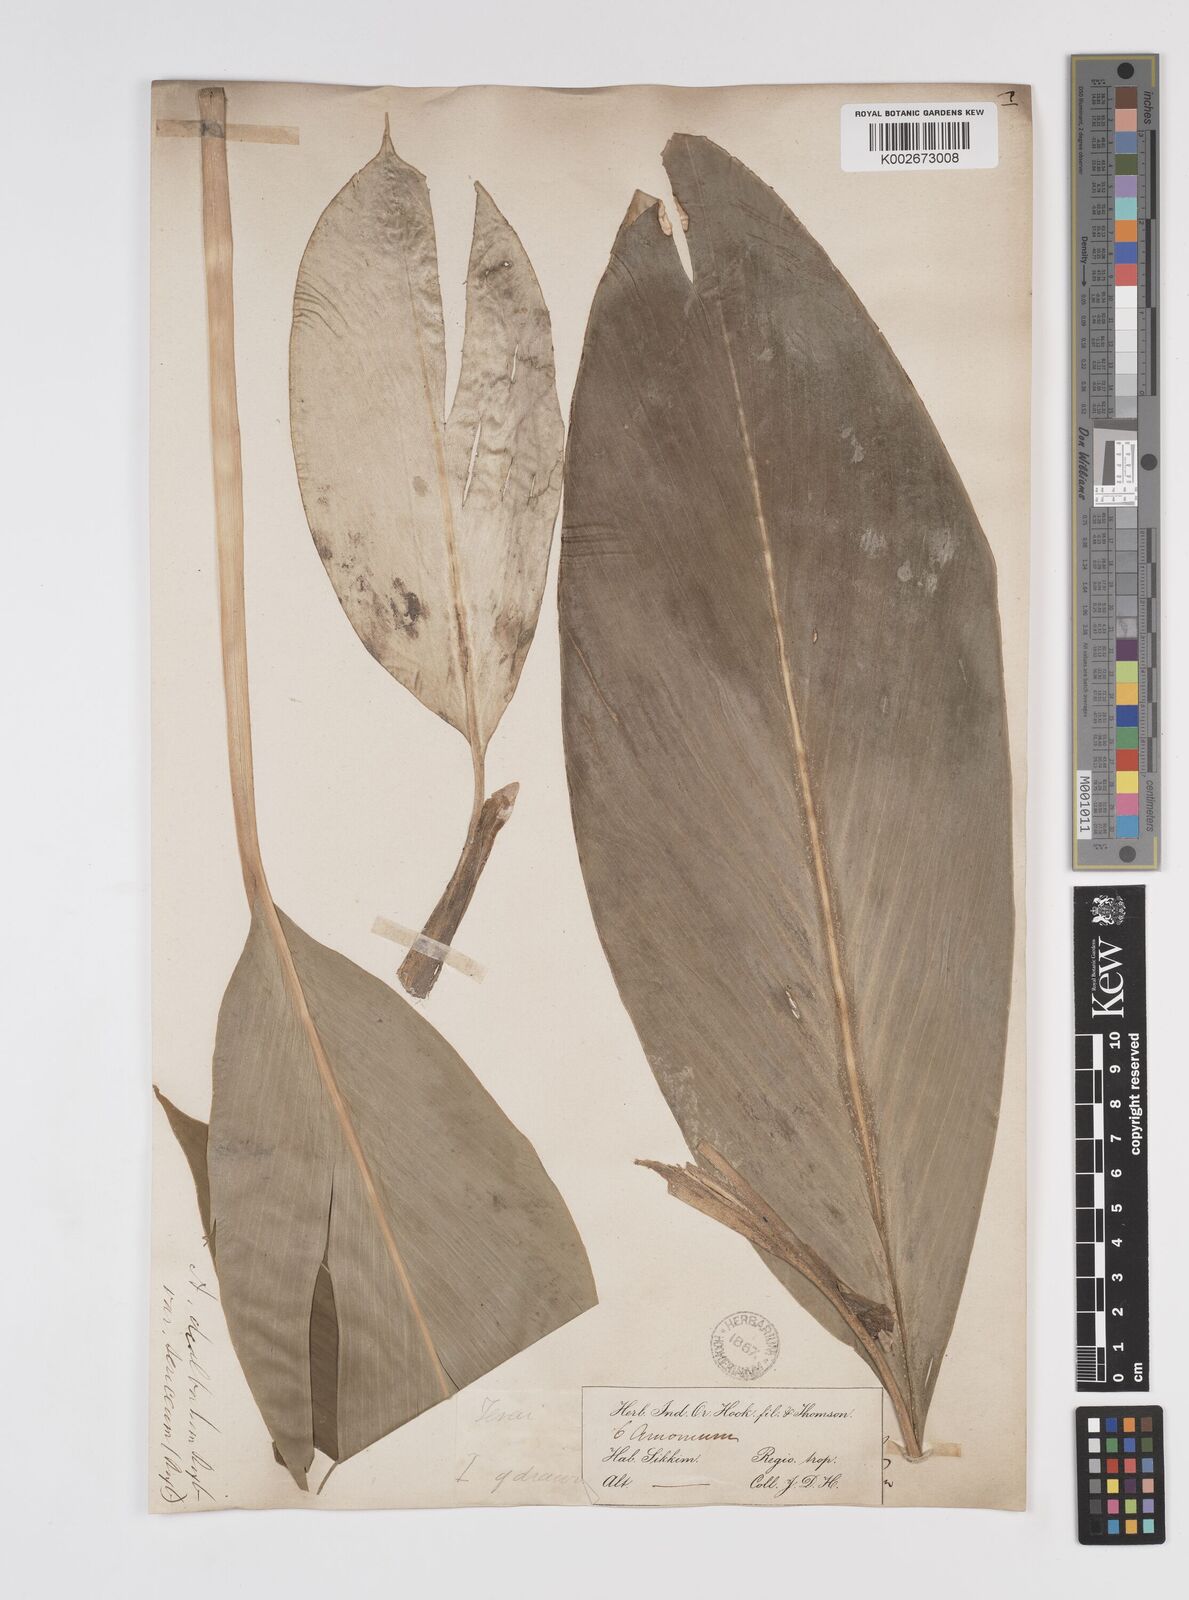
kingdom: Plantae
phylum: Tracheophyta
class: Liliopsida
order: Zingiberales
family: Zingiberaceae
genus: Amomum
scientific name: Amomum dealbatum
